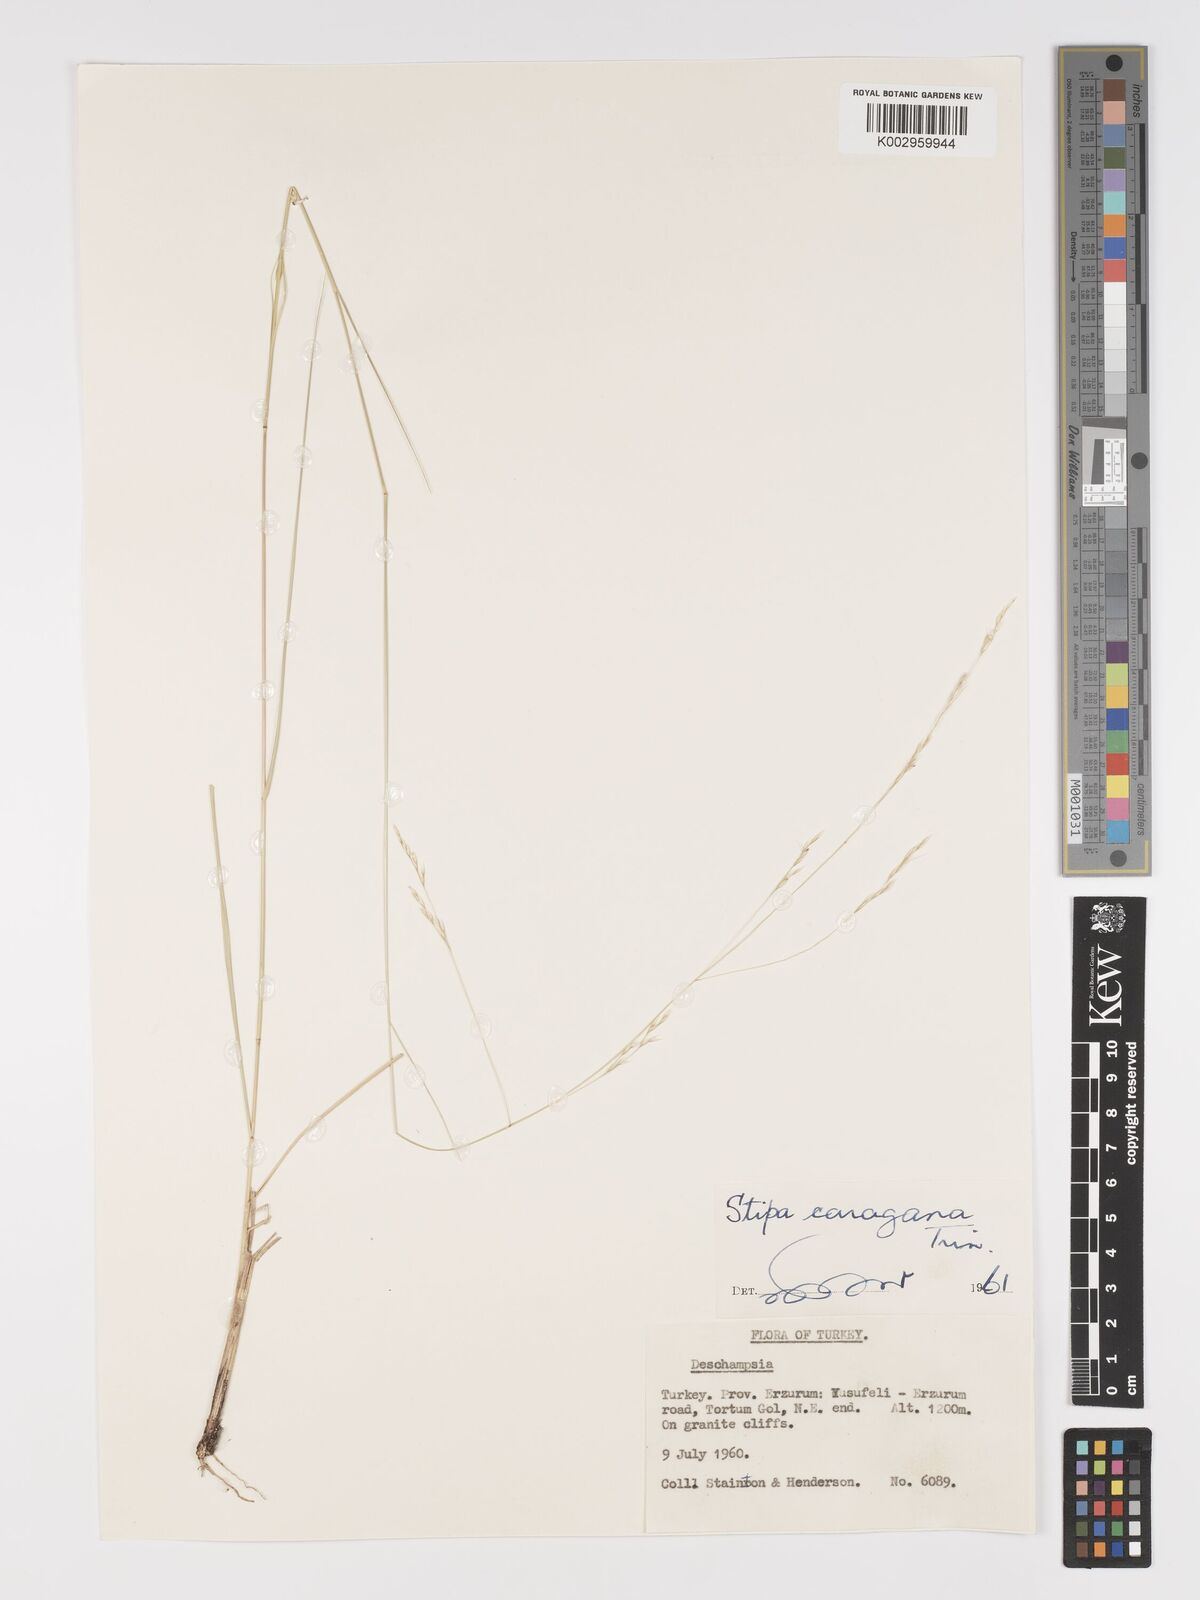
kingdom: Plantae
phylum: Tracheophyta
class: Liliopsida
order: Poales
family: Poaceae
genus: Stipa
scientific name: Stipa conferta
